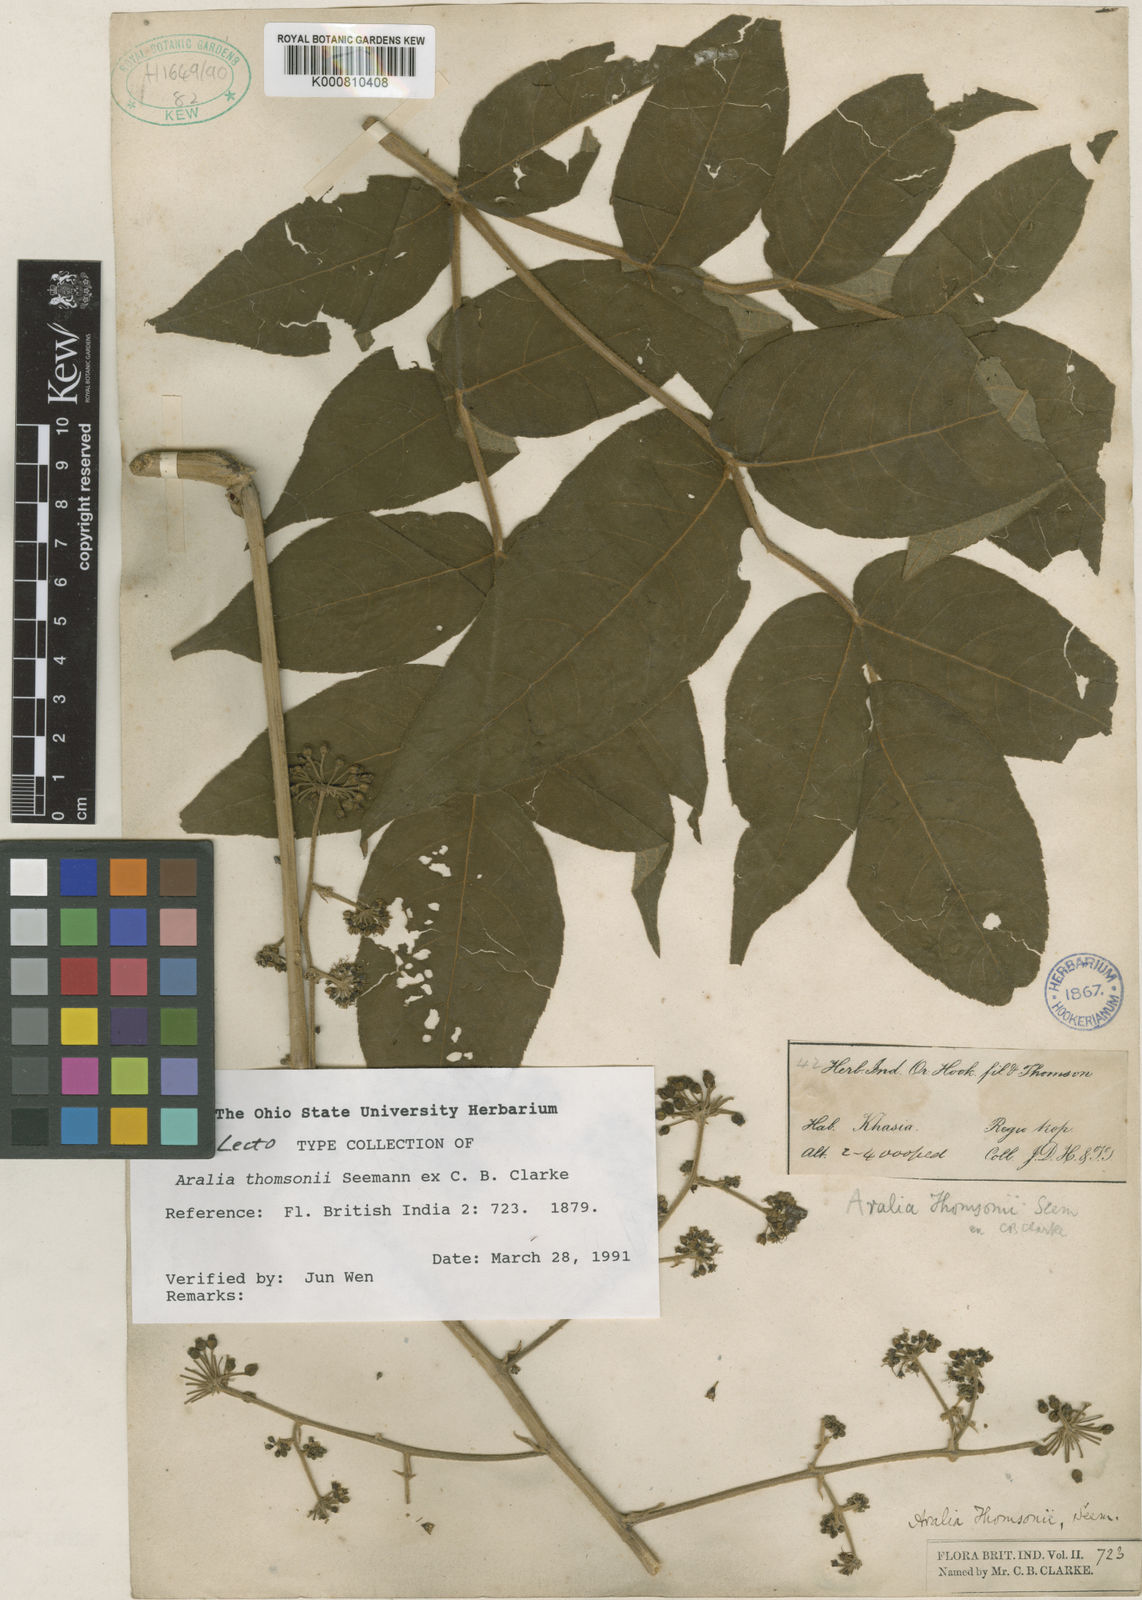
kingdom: Plantae
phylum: Tracheophyta
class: Magnoliopsida
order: Apiales
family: Araliaceae
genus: Aralia
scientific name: Aralia thomsonii
